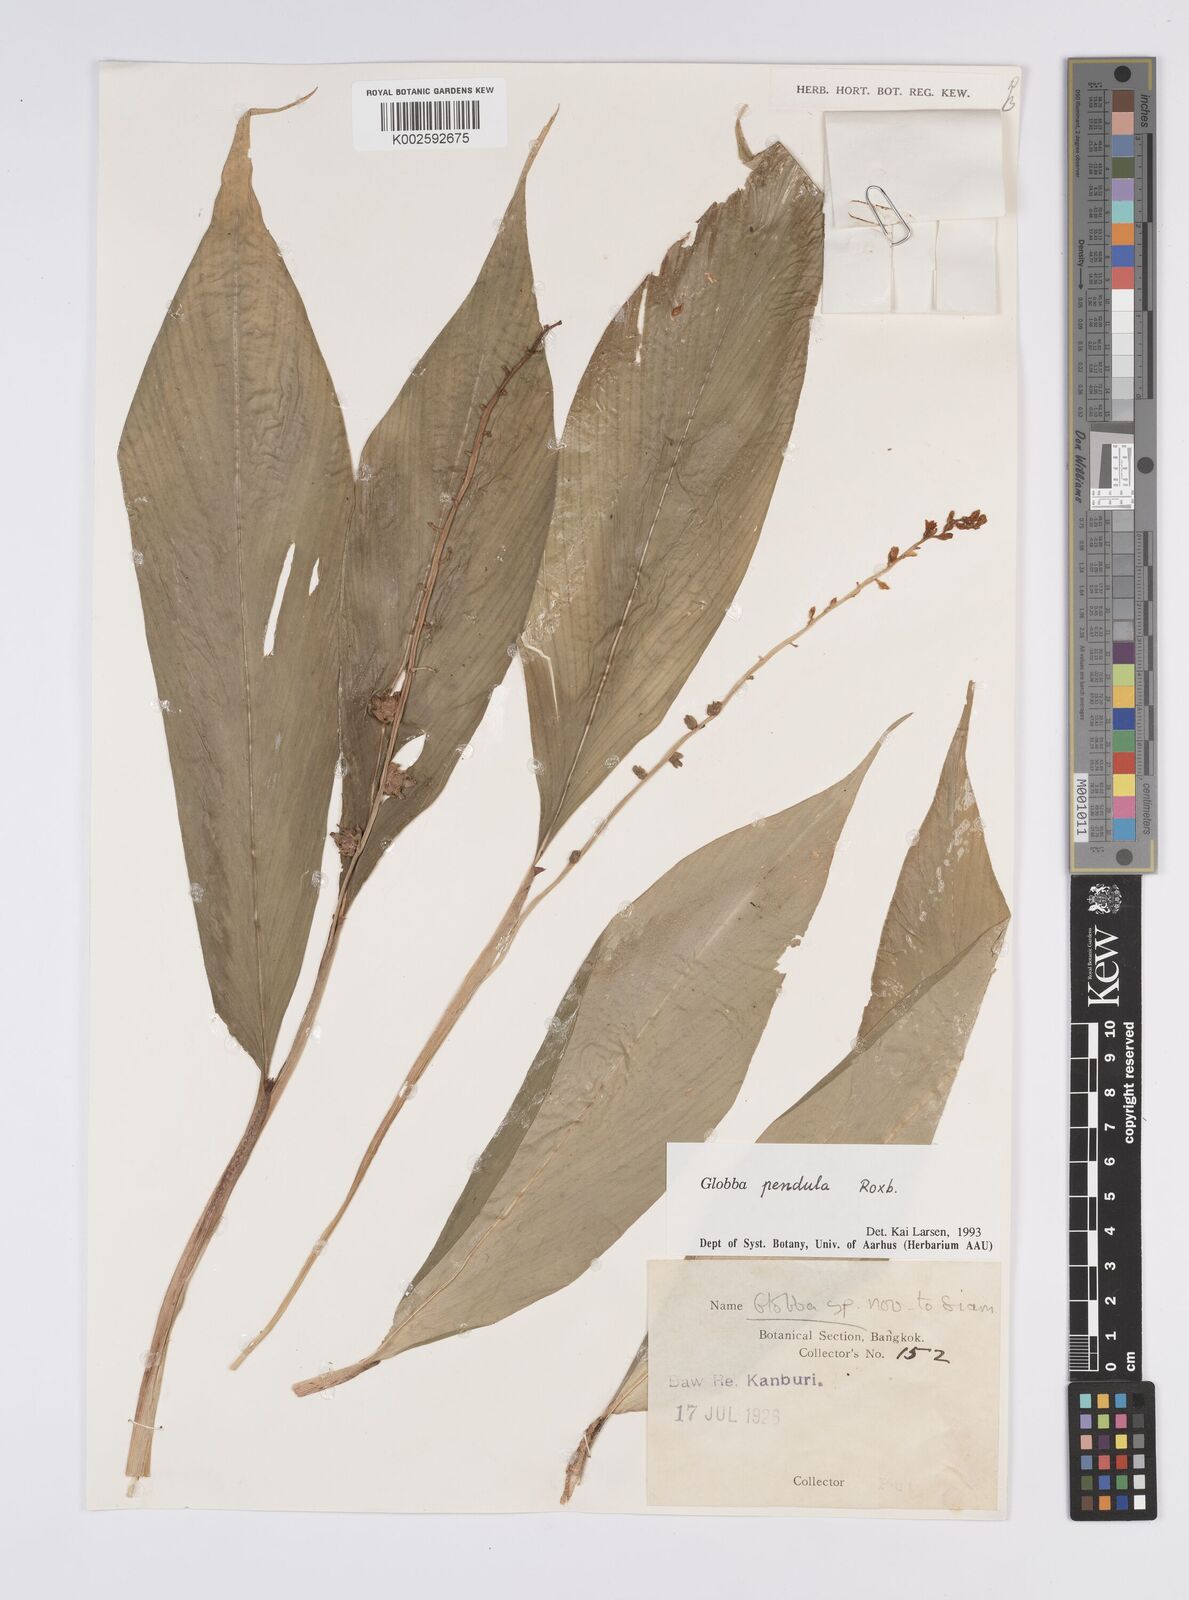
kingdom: Plantae
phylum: Tracheophyta
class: Liliopsida
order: Zingiberales
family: Zingiberaceae
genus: Globba
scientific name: Globba pendula
